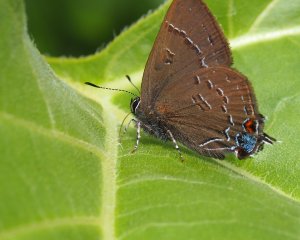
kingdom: Animalia
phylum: Arthropoda
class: Insecta
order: Lepidoptera
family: Lycaenidae
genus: Satyrium
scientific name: Satyrium calanus
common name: Banded Hairstreak
